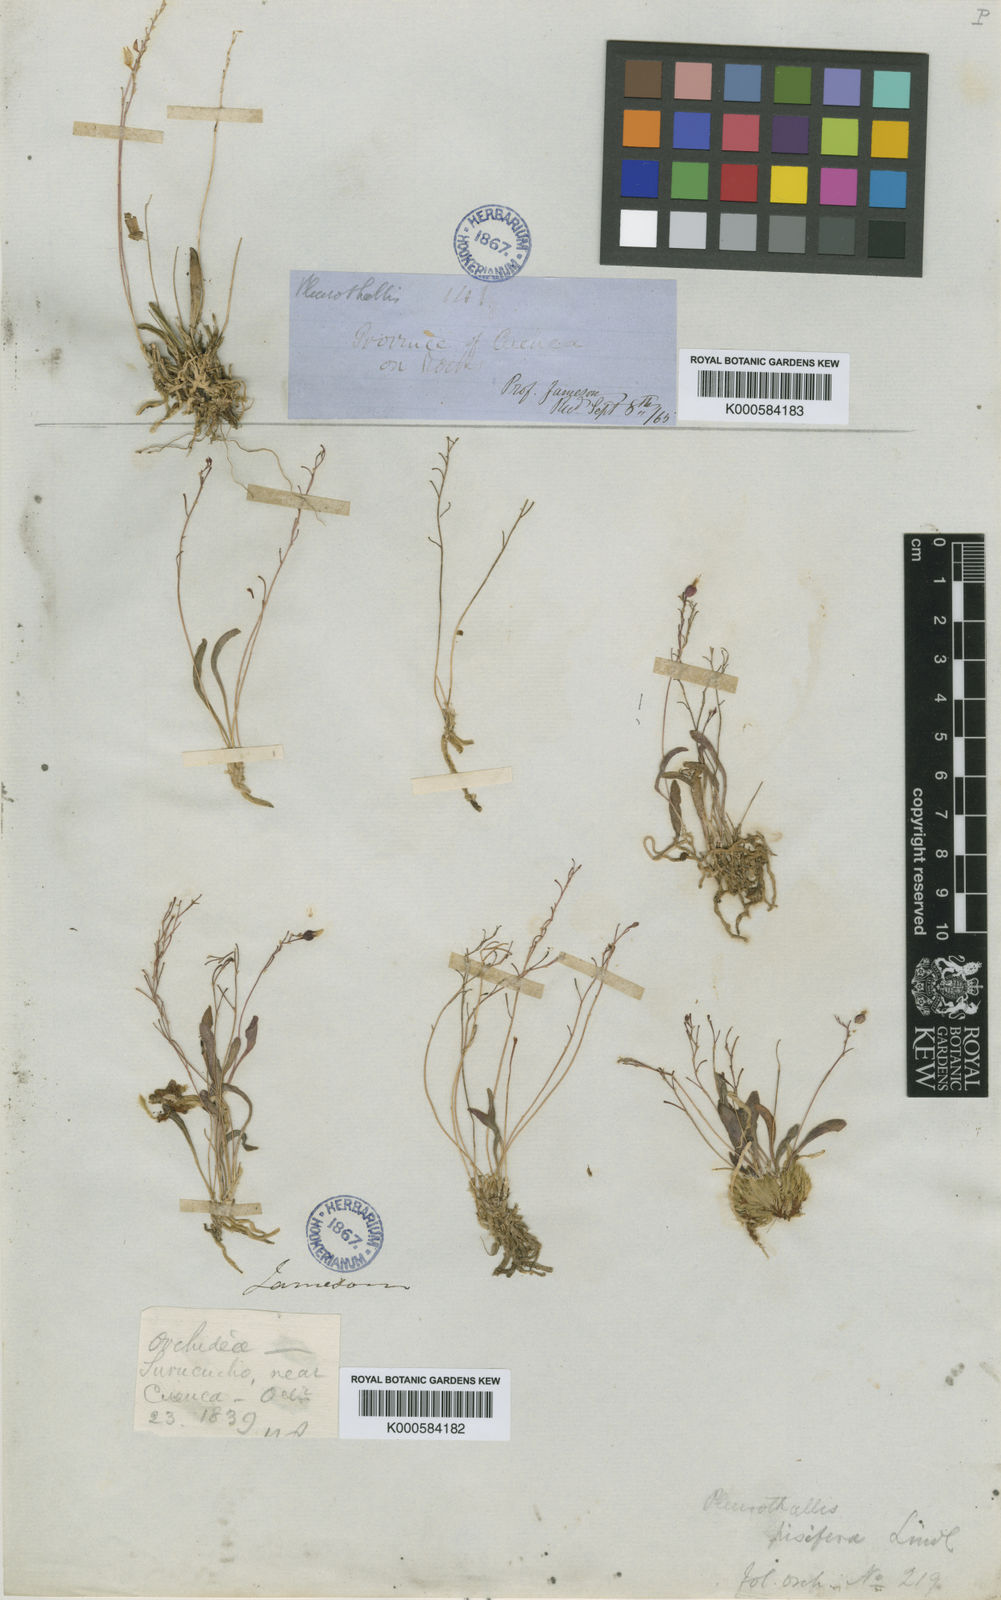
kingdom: Plantae
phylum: Tracheophyta
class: Liliopsida
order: Asparagales
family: Orchidaceae
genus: Platystele
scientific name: Platystele pisifera
